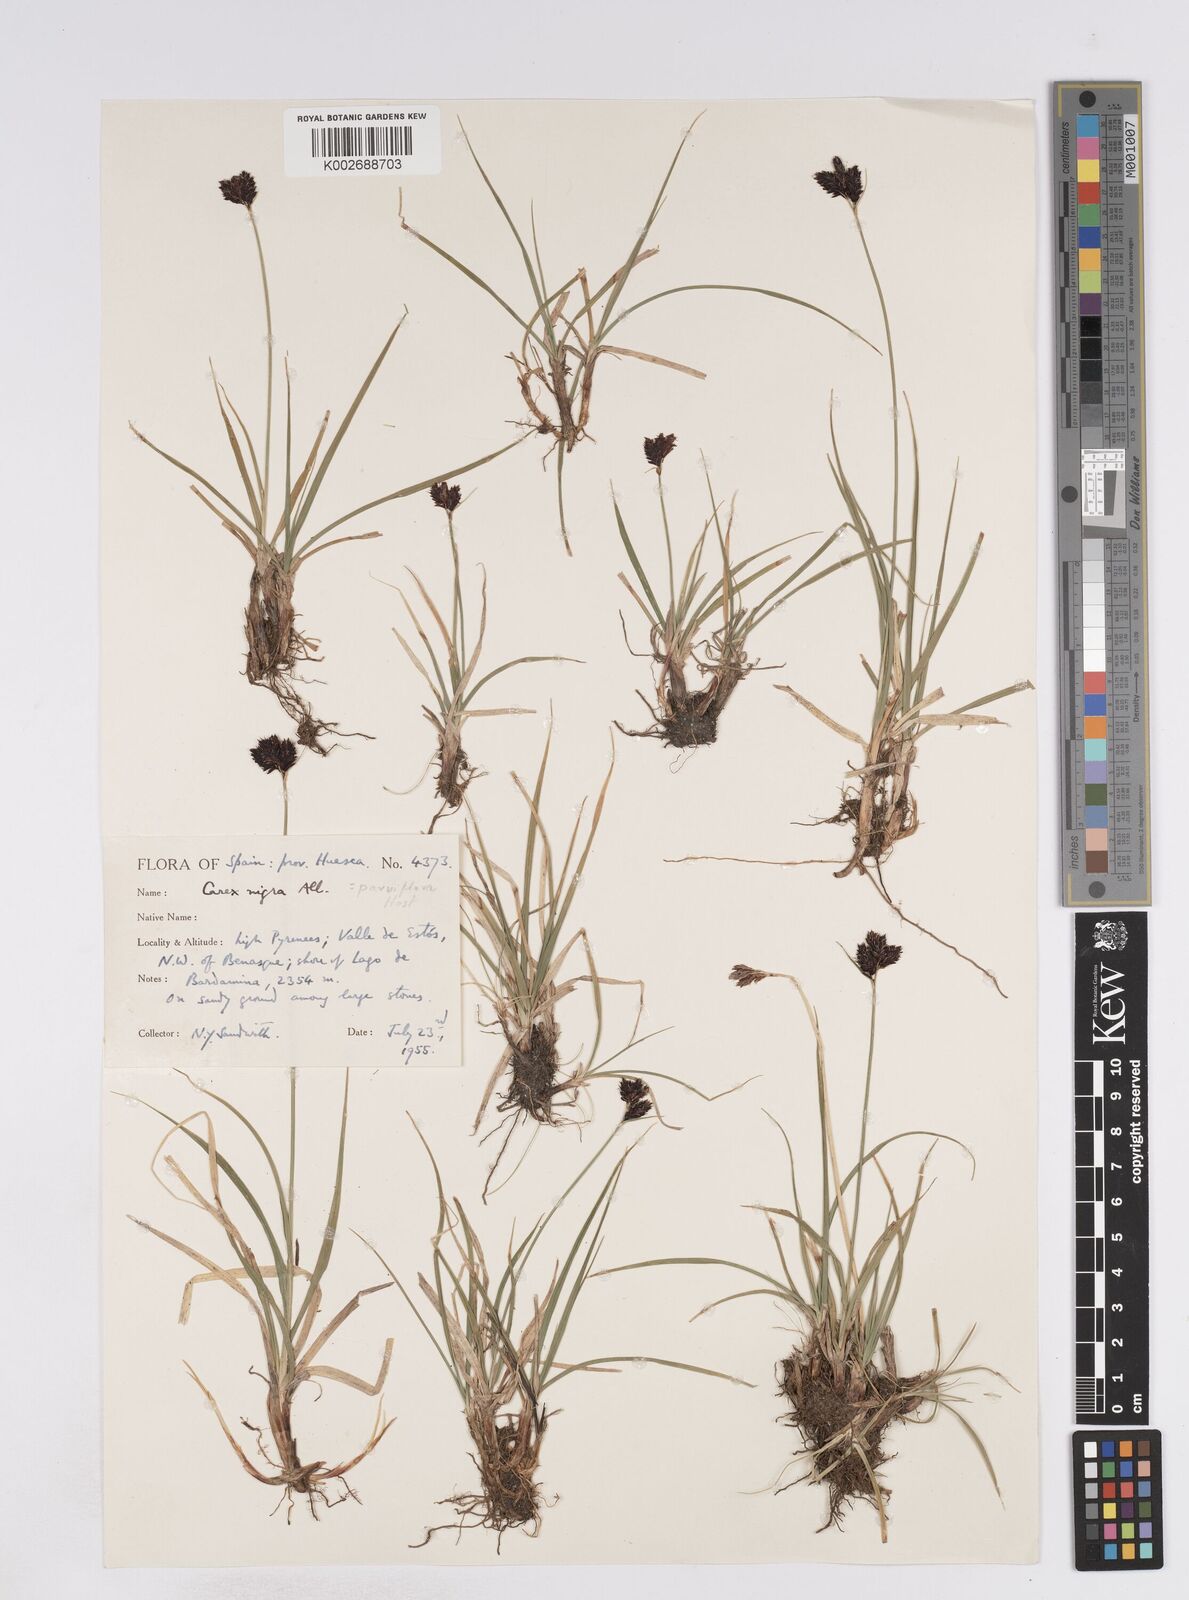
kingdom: Plantae
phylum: Tracheophyta
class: Liliopsida
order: Poales
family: Cyperaceae
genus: Carex
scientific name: Carex parviflora
